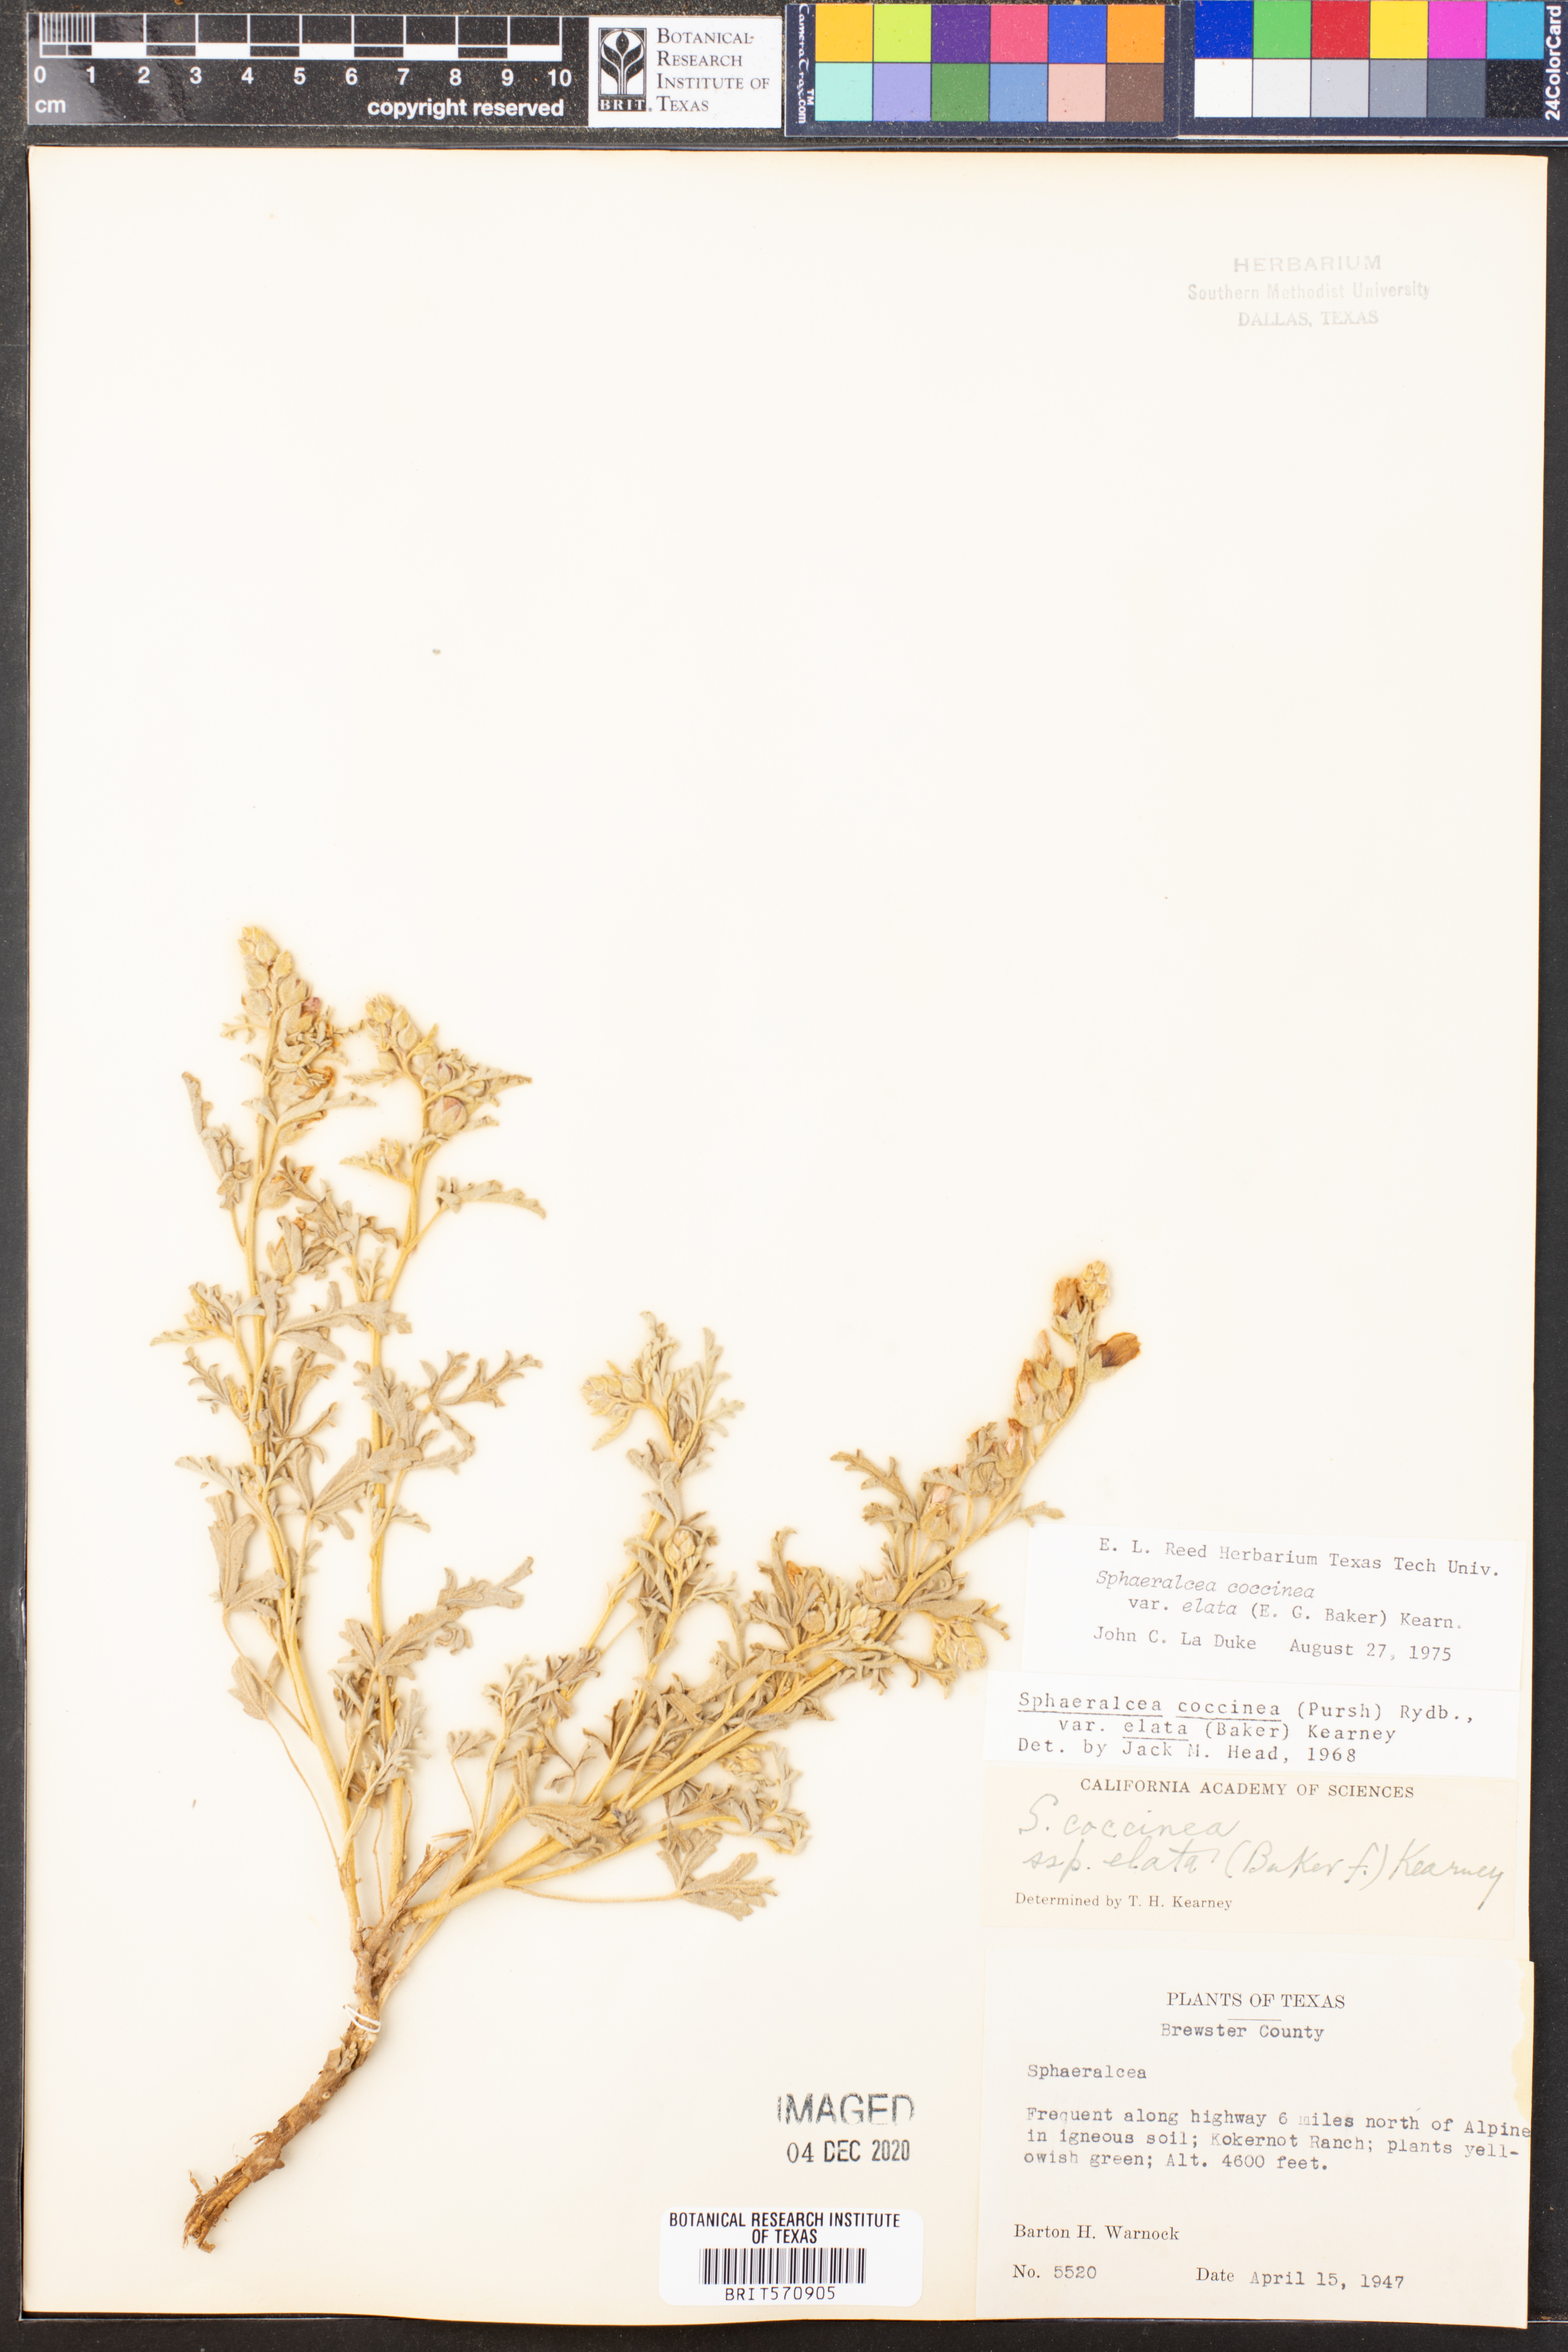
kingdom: Plantae
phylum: Tracheophyta
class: Magnoliopsida
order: Malvales
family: Malvaceae
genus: Sphaeralcea
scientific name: Sphaeralcea coccinea
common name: Moss-rose
